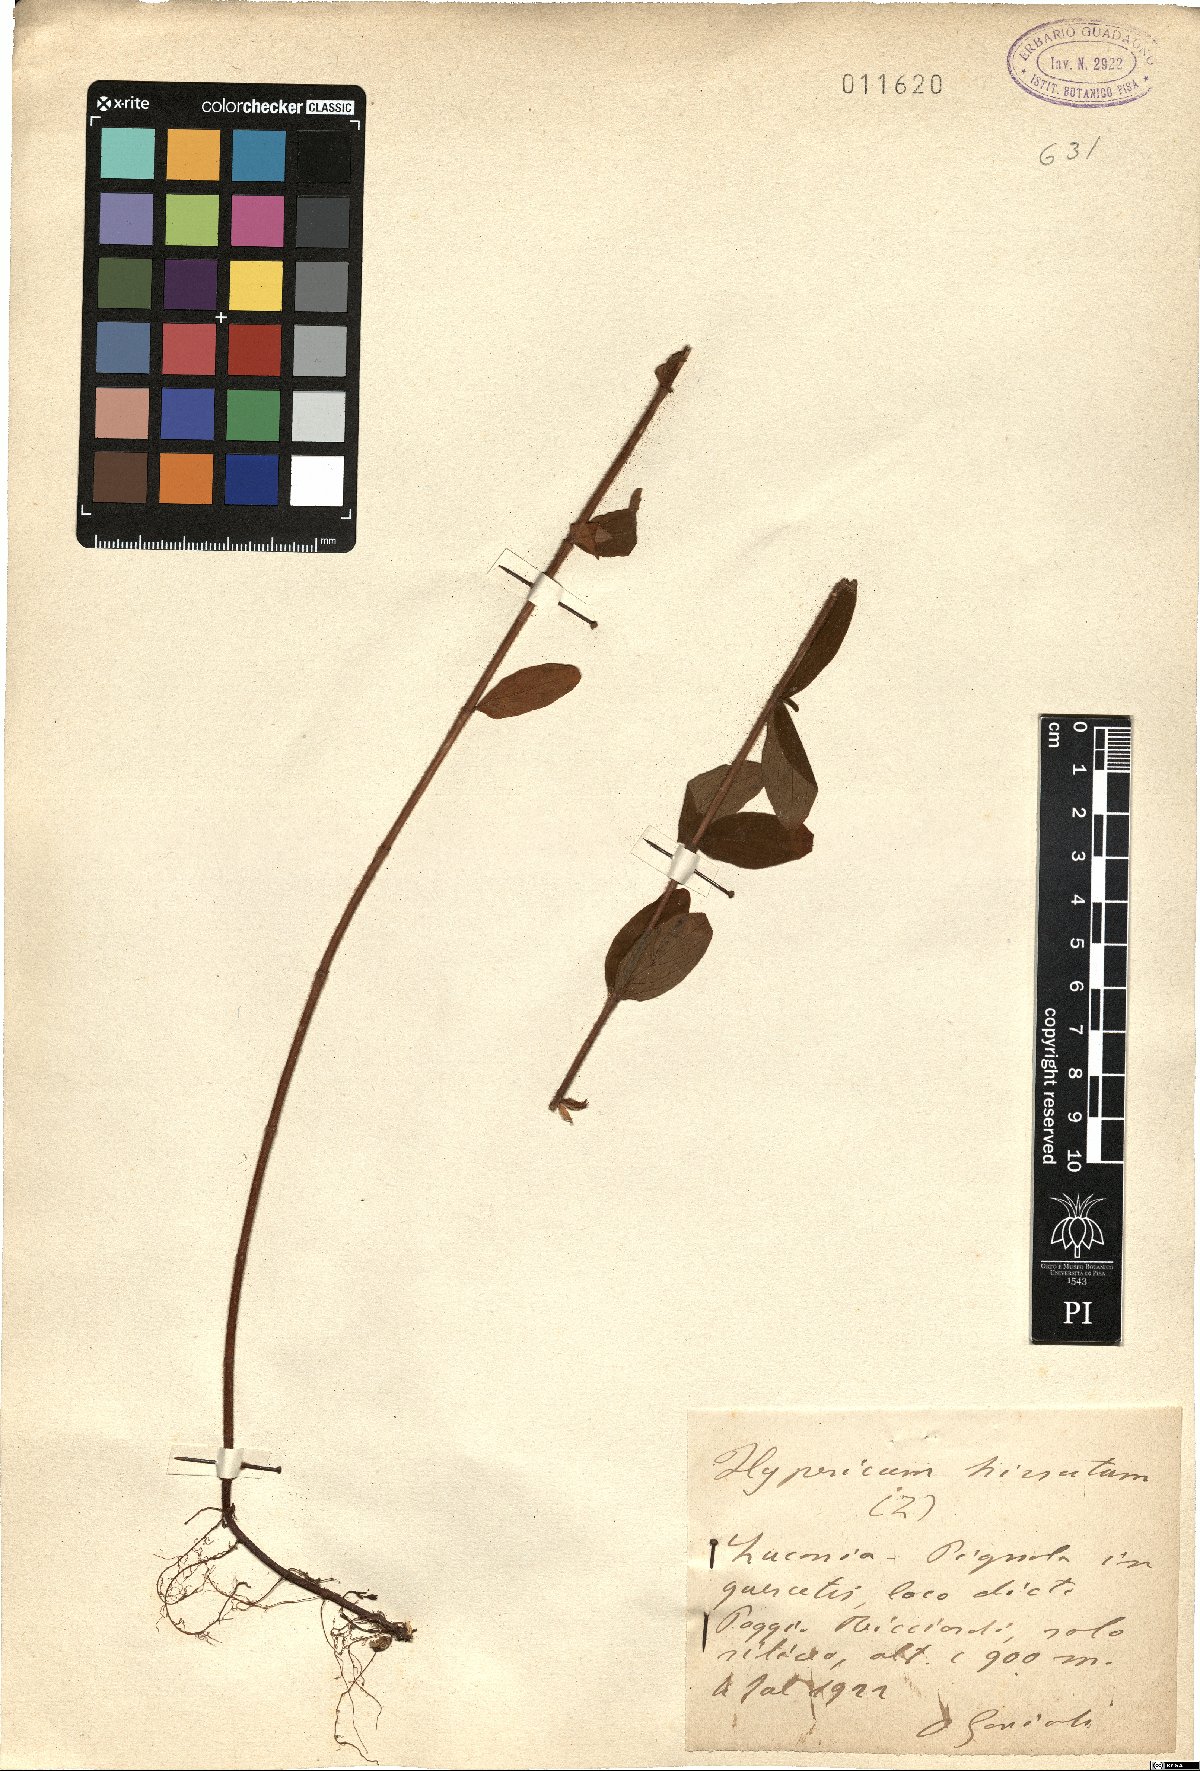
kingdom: Plantae
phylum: Tracheophyta
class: Magnoliopsida
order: Malpighiales
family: Hypericaceae
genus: Hypericum
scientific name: Hypericum hirsutum
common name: Hairy st. john's-wort
